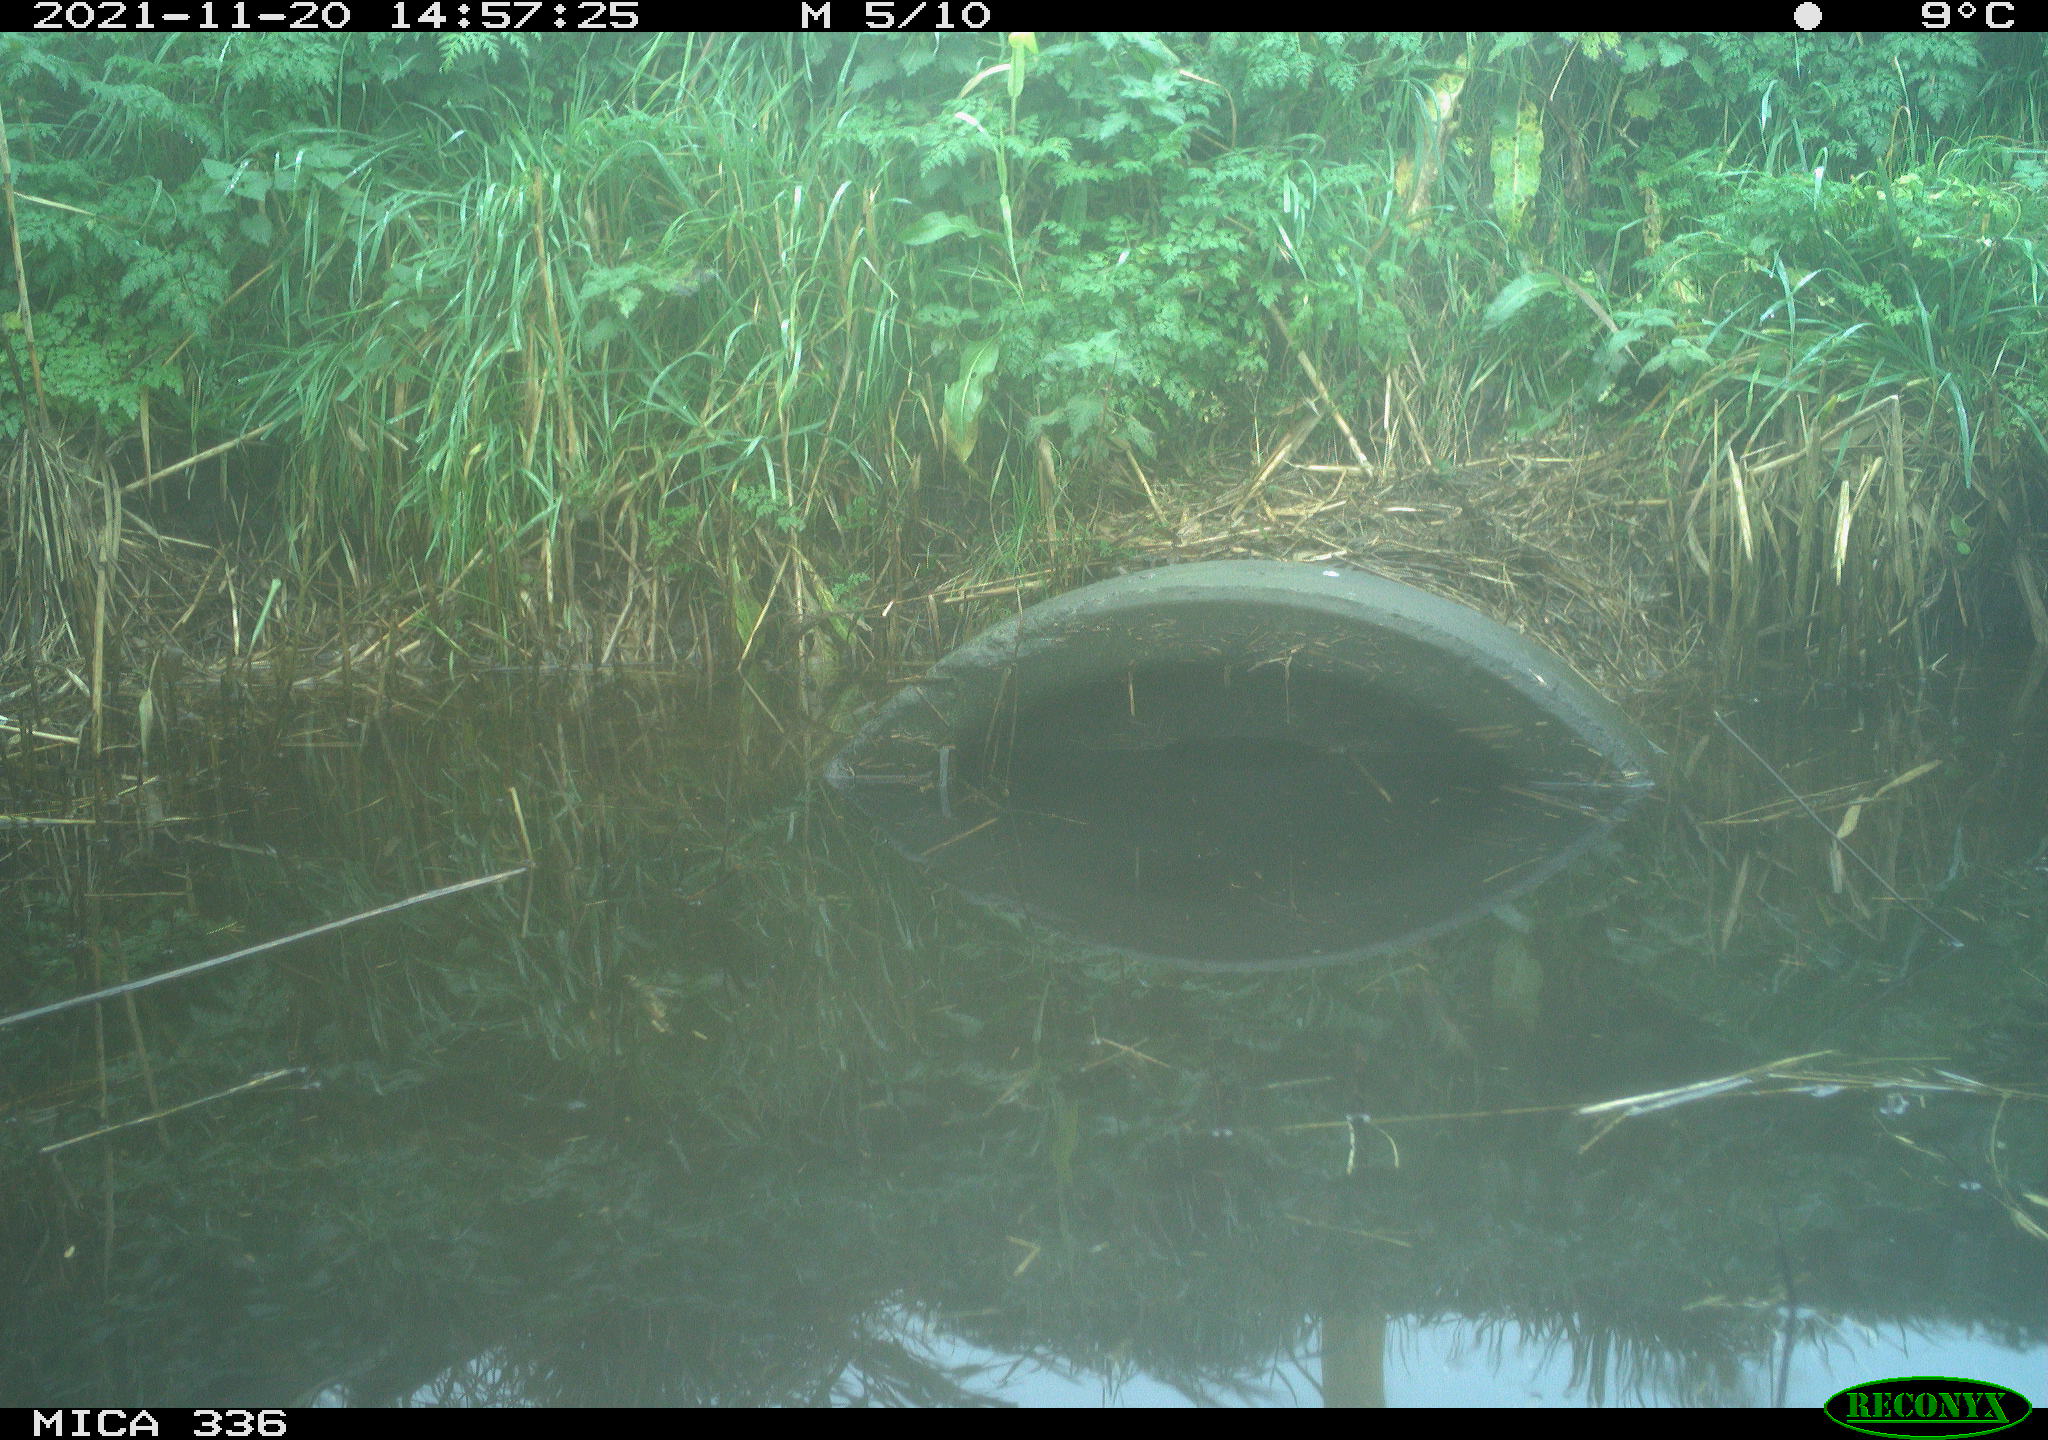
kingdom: Animalia
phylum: Chordata
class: Aves
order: Gruiformes
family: Rallidae
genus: Gallinula
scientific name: Gallinula chloropus
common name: Common moorhen
